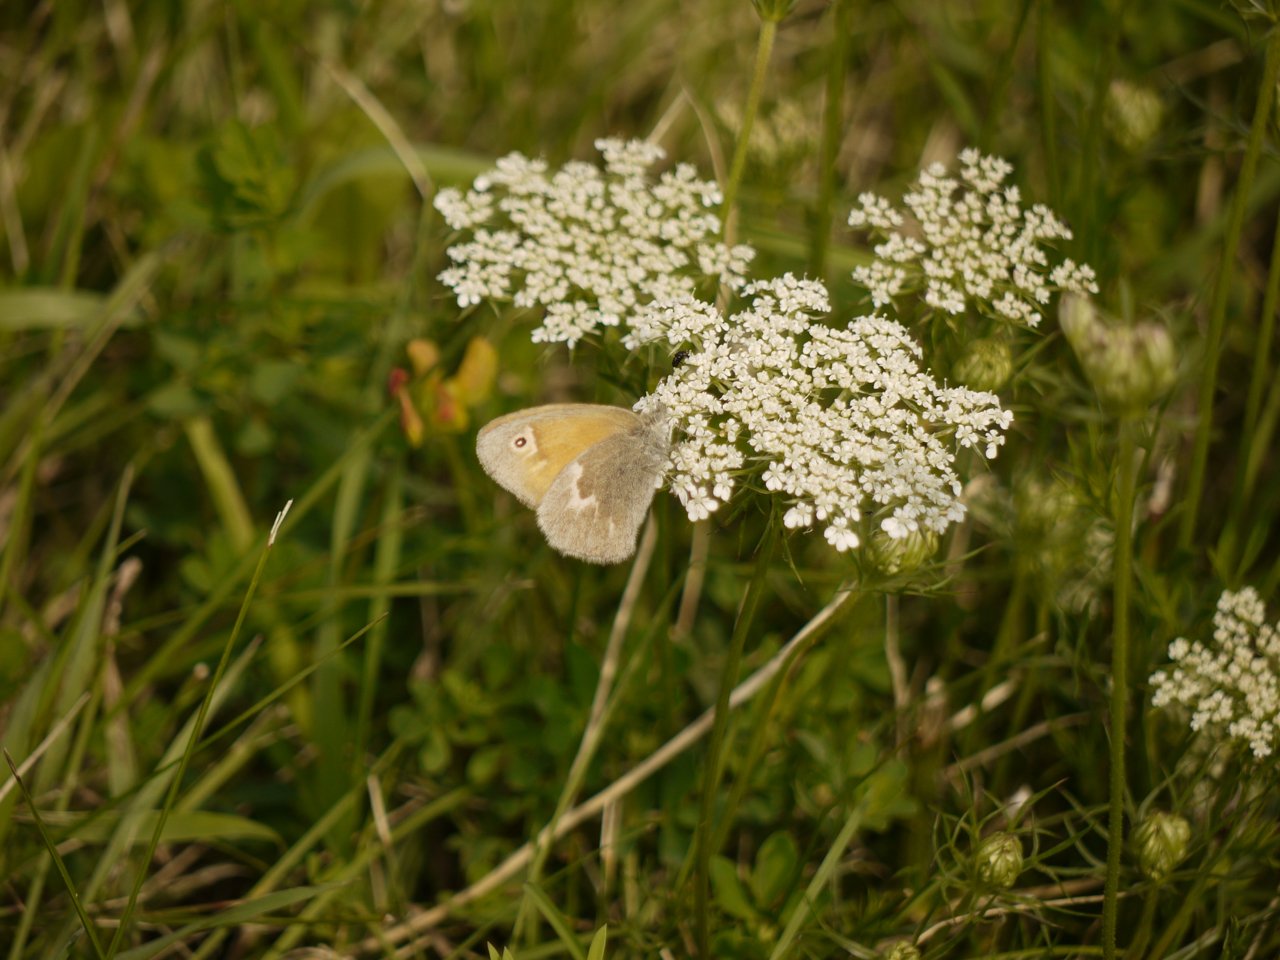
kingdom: Animalia
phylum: Arthropoda
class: Insecta
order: Lepidoptera
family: Nymphalidae
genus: Coenonympha
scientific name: Coenonympha tullia
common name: Large Heath
